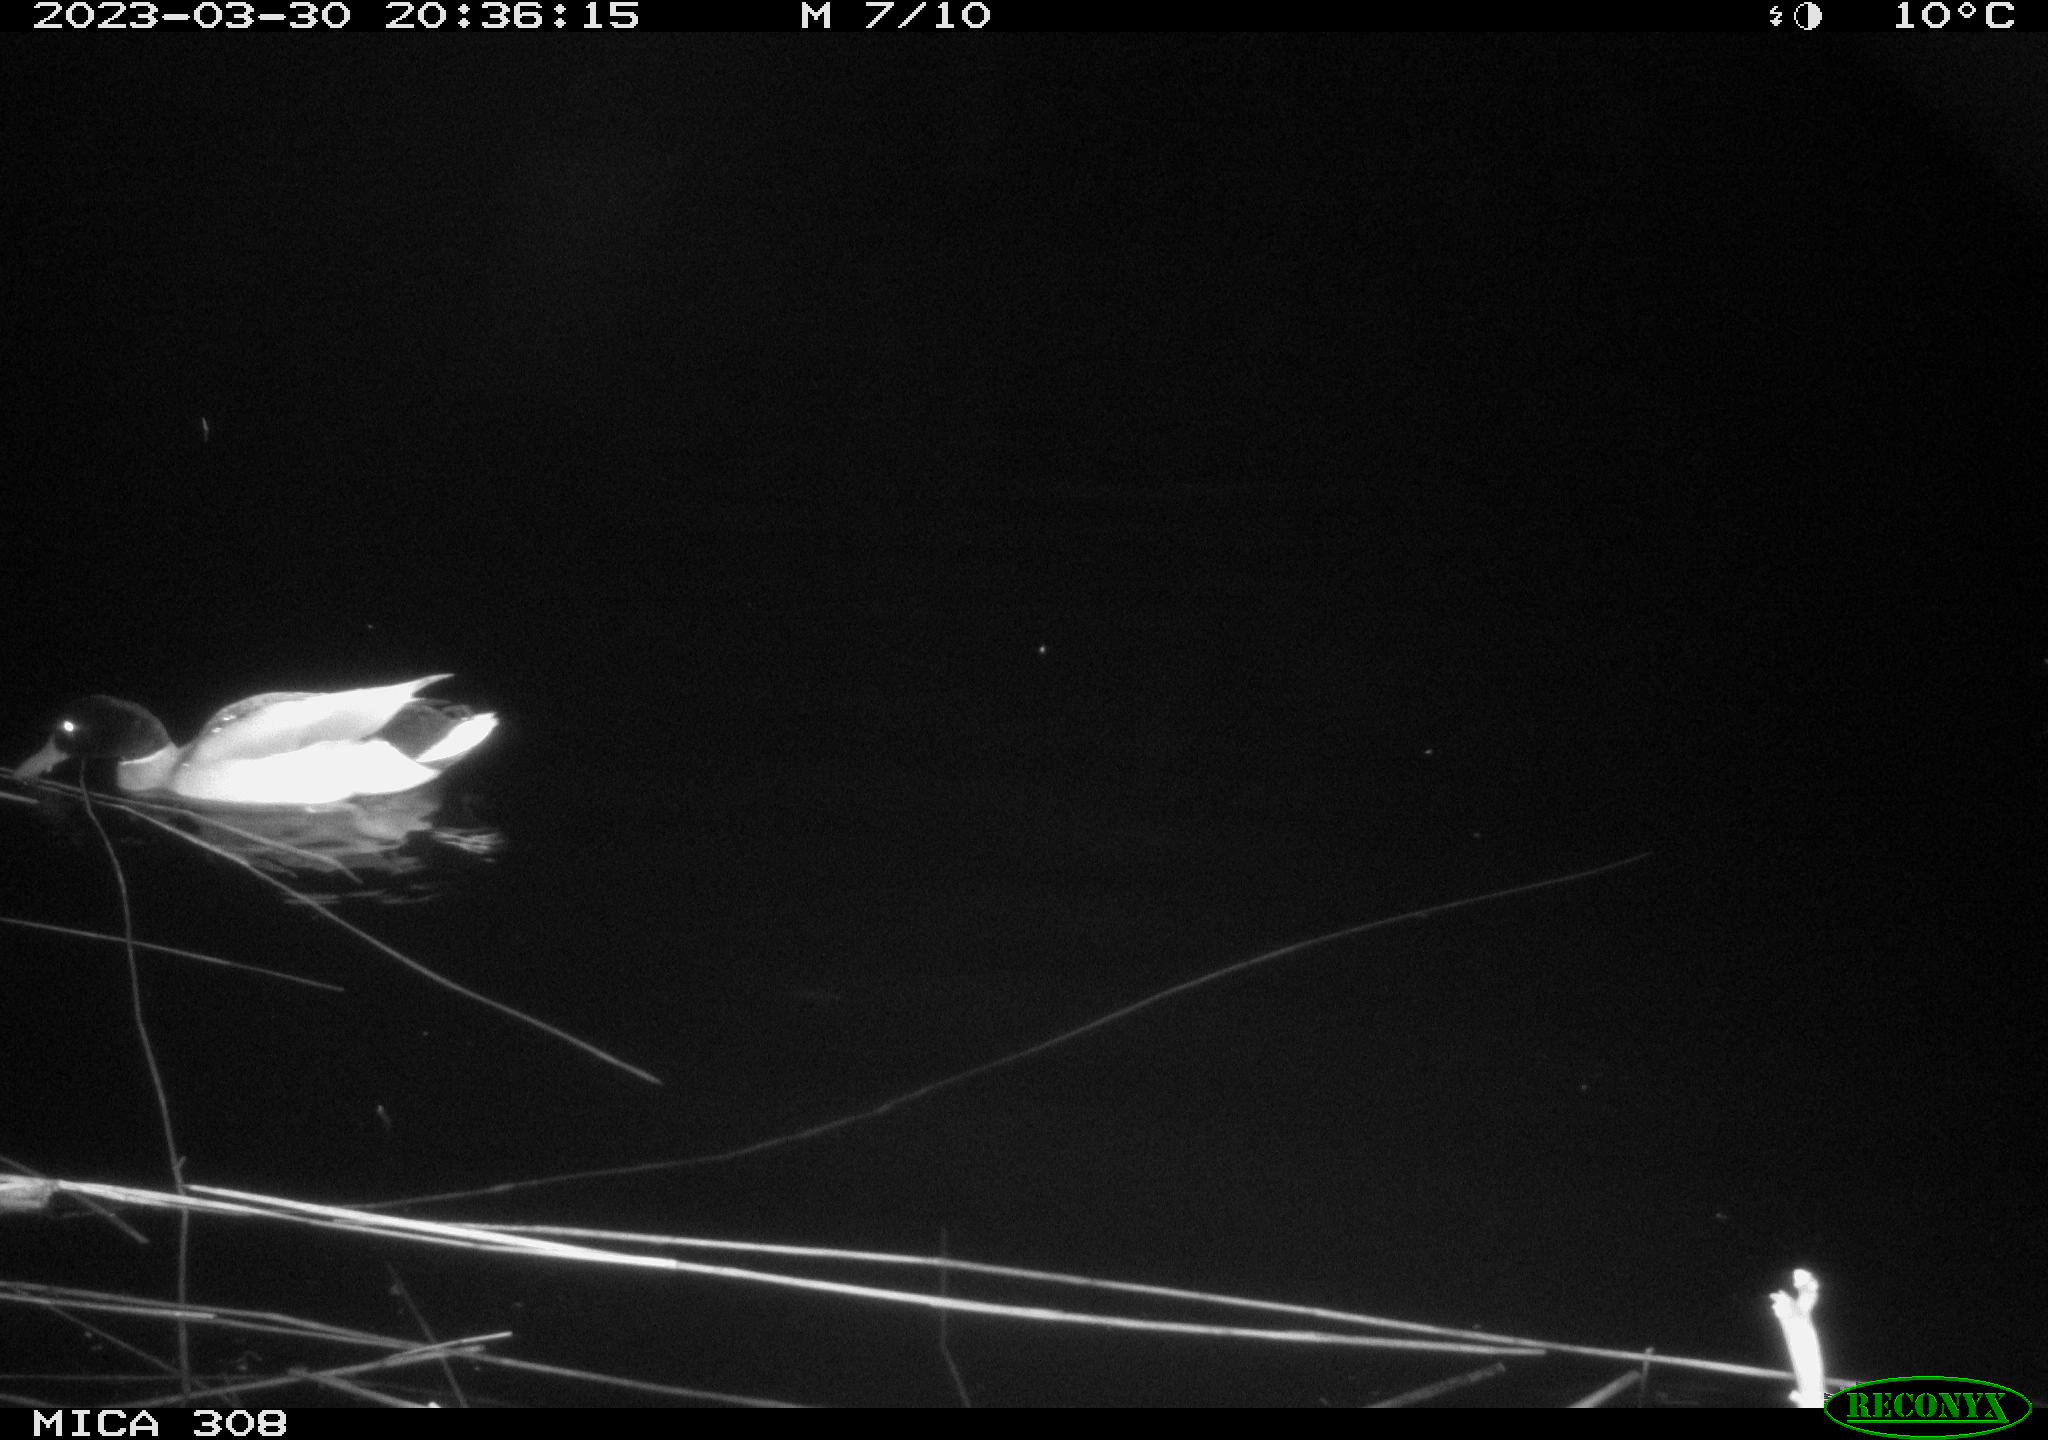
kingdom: Animalia
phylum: Chordata
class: Aves
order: Anseriformes
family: Anatidae
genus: Anas
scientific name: Anas
